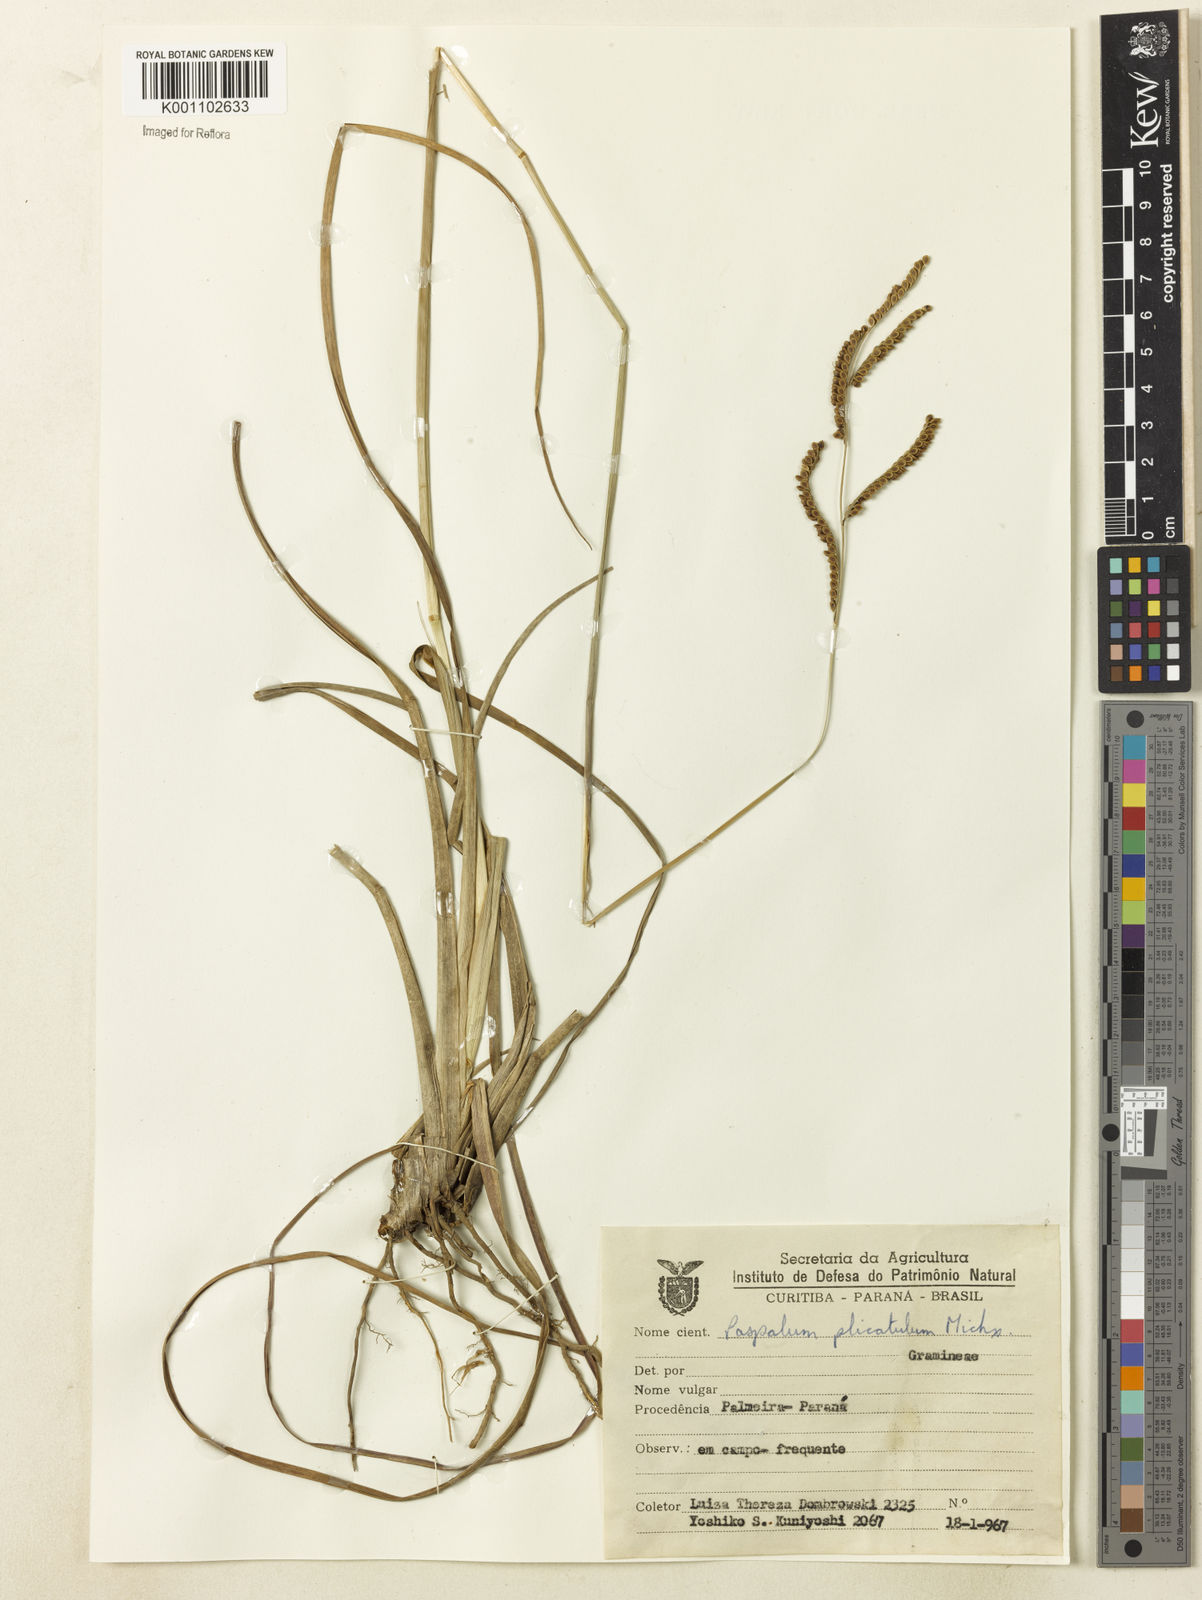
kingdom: Plantae
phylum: Tracheophyta
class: Liliopsida
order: Poales
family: Poaceae
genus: Paspalum
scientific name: Paspalum
